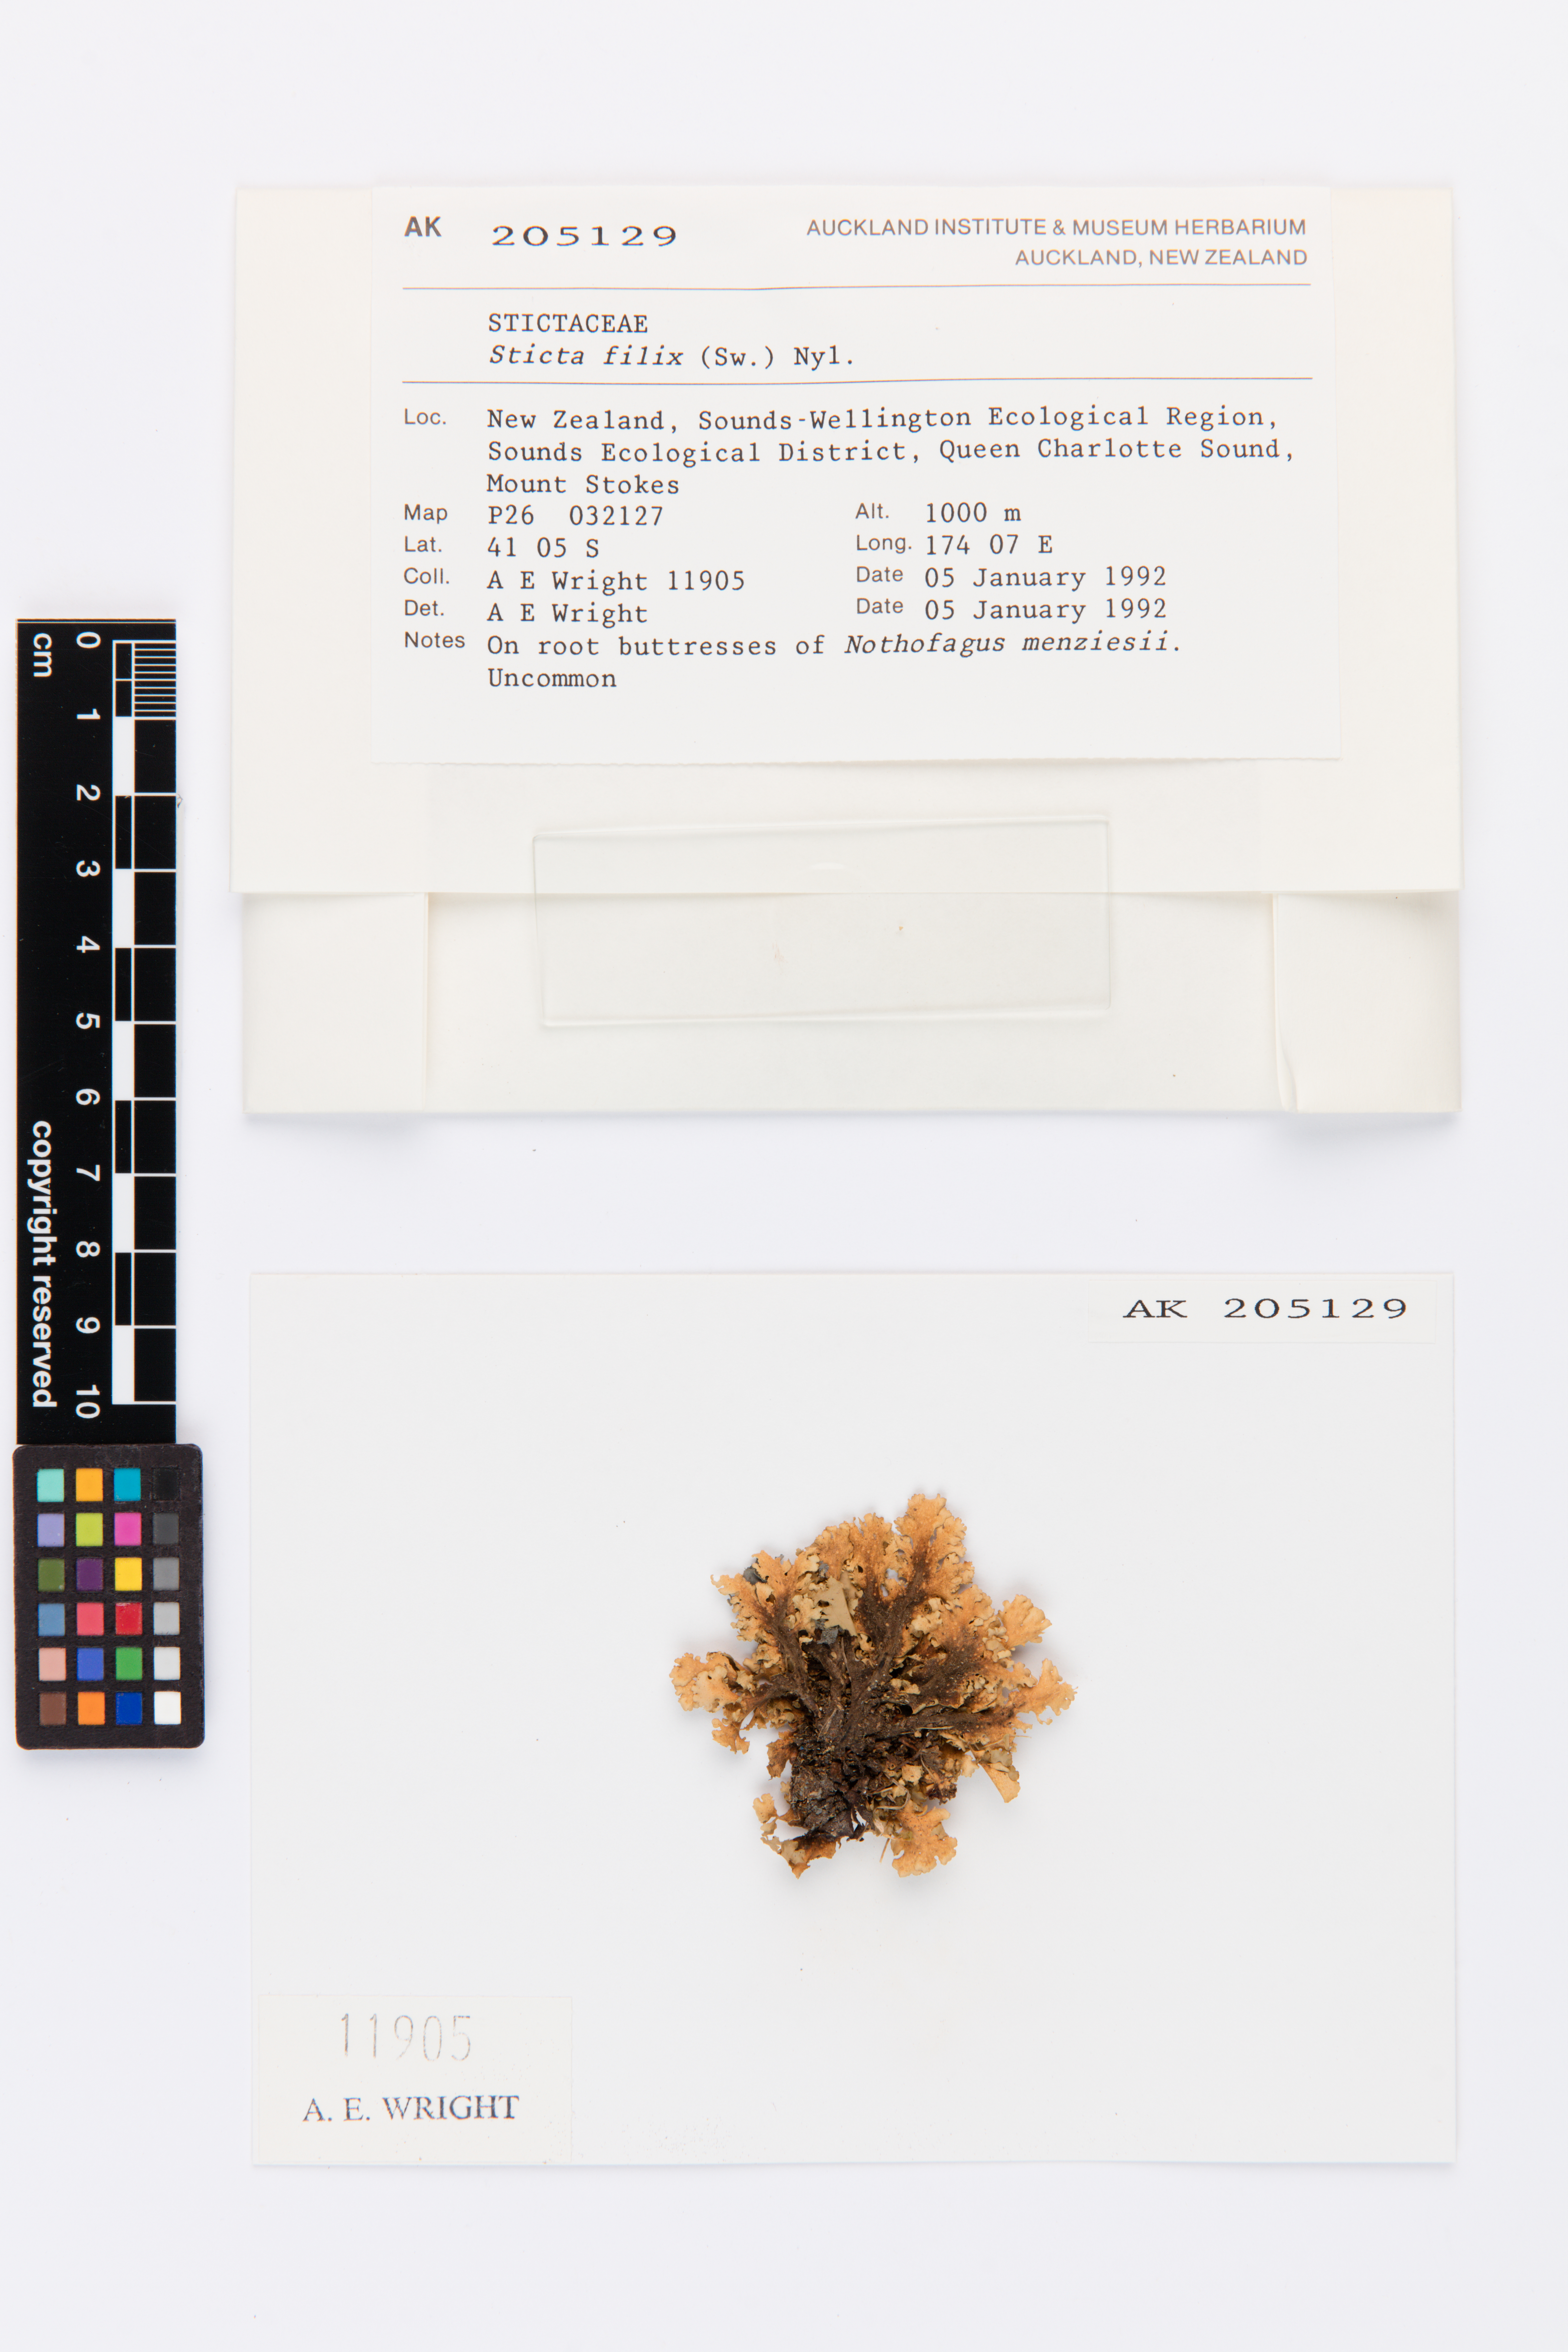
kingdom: Fungi
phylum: Ascomycota
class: Lecanoromycetes
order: Peltigerales
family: Lobariaceae
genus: Sticta
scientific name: Sticta filix
